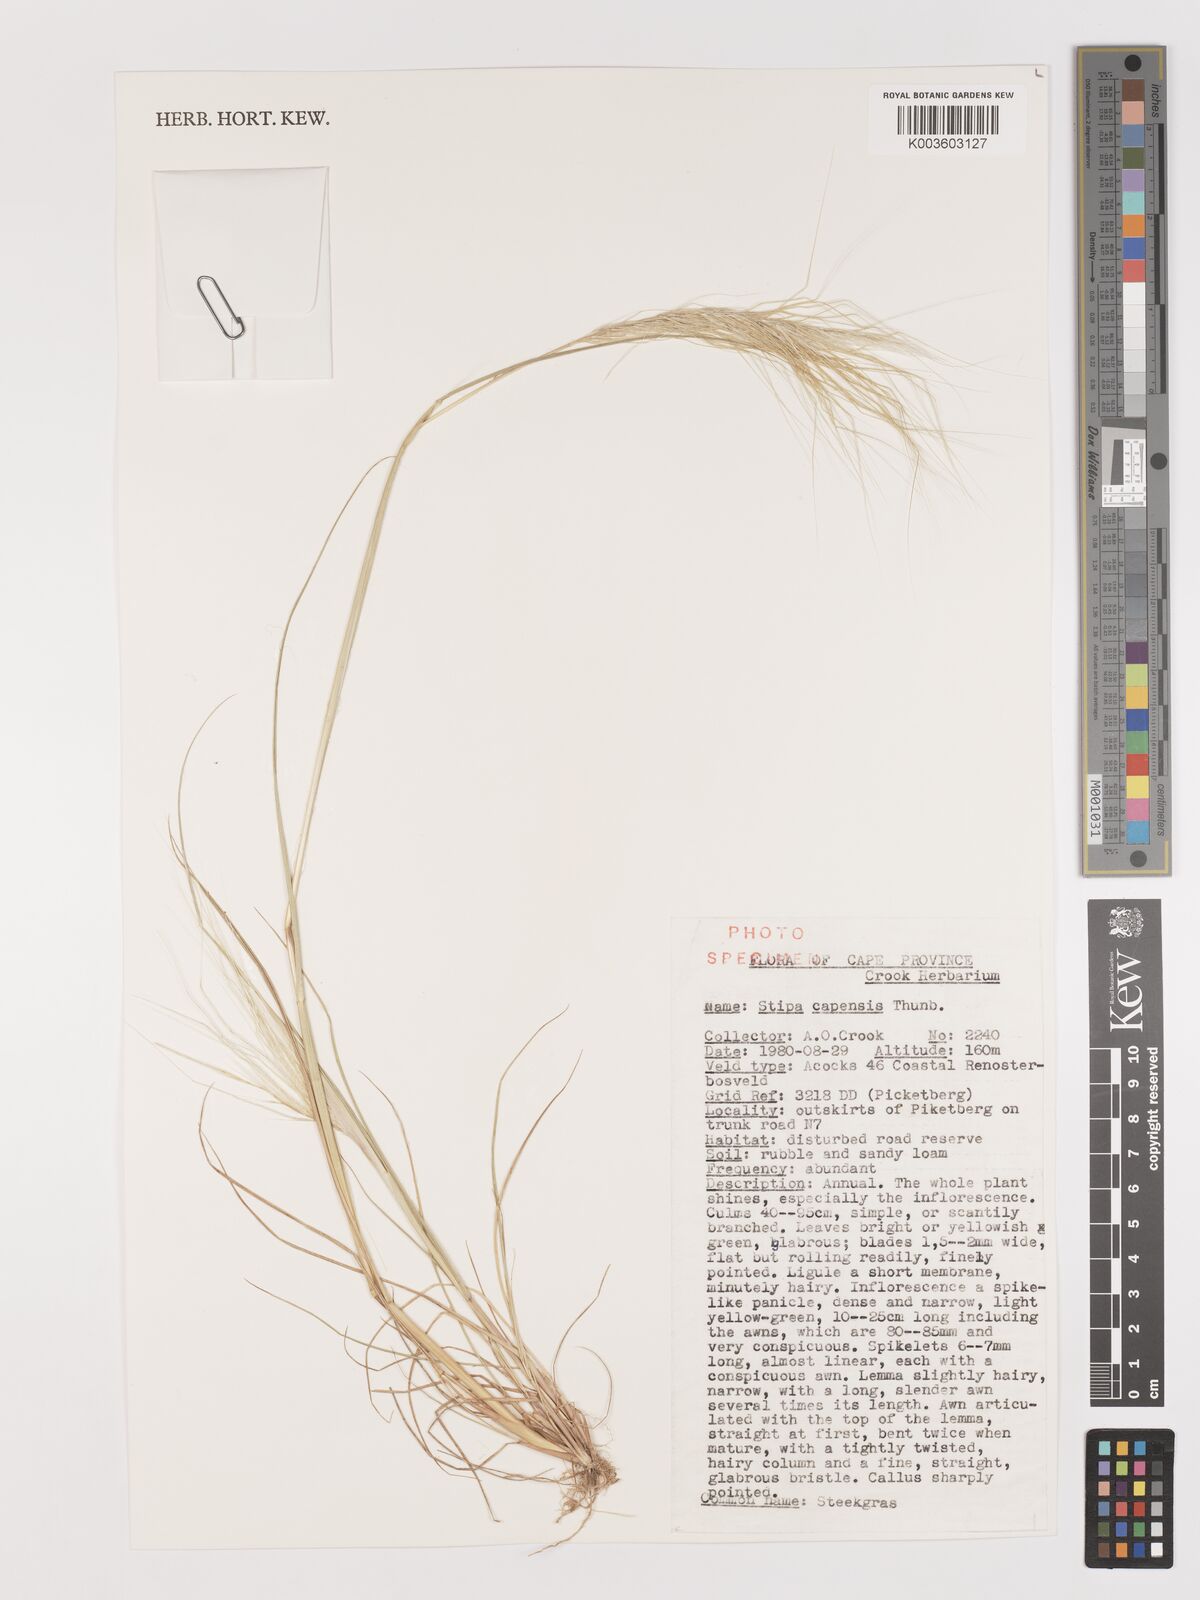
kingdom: Plantae
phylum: Tracheophyta
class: Liliopsida
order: Poales
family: Poaceae
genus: Stipellula
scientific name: Stipellula capensis
